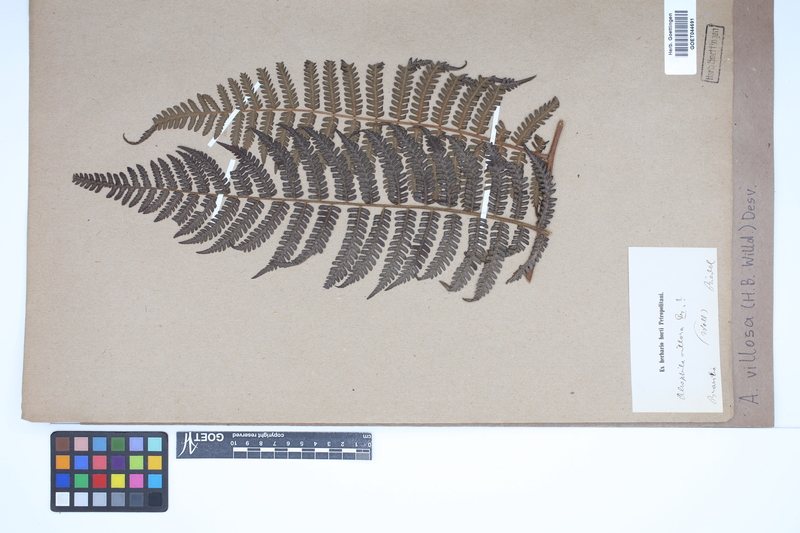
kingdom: Plantae
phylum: Tracheophyta
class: Polypodiopsida
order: Cyatheales
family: Cyatheaceae
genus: Cyathea
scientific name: Cyathea villosa
